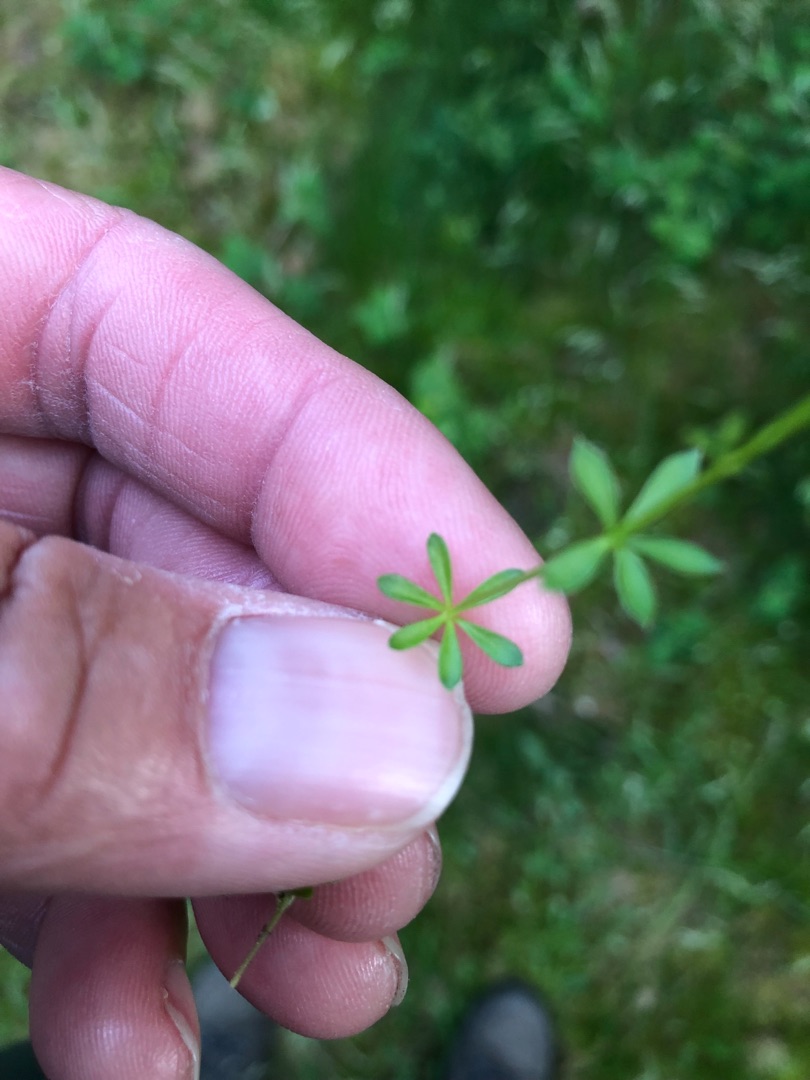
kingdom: Plantae
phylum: Tracheophyta
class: Magnoliopsida
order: Gentianales
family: Rubiaceae
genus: Galium
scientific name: Galium saxatile
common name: Lyng-snerre
